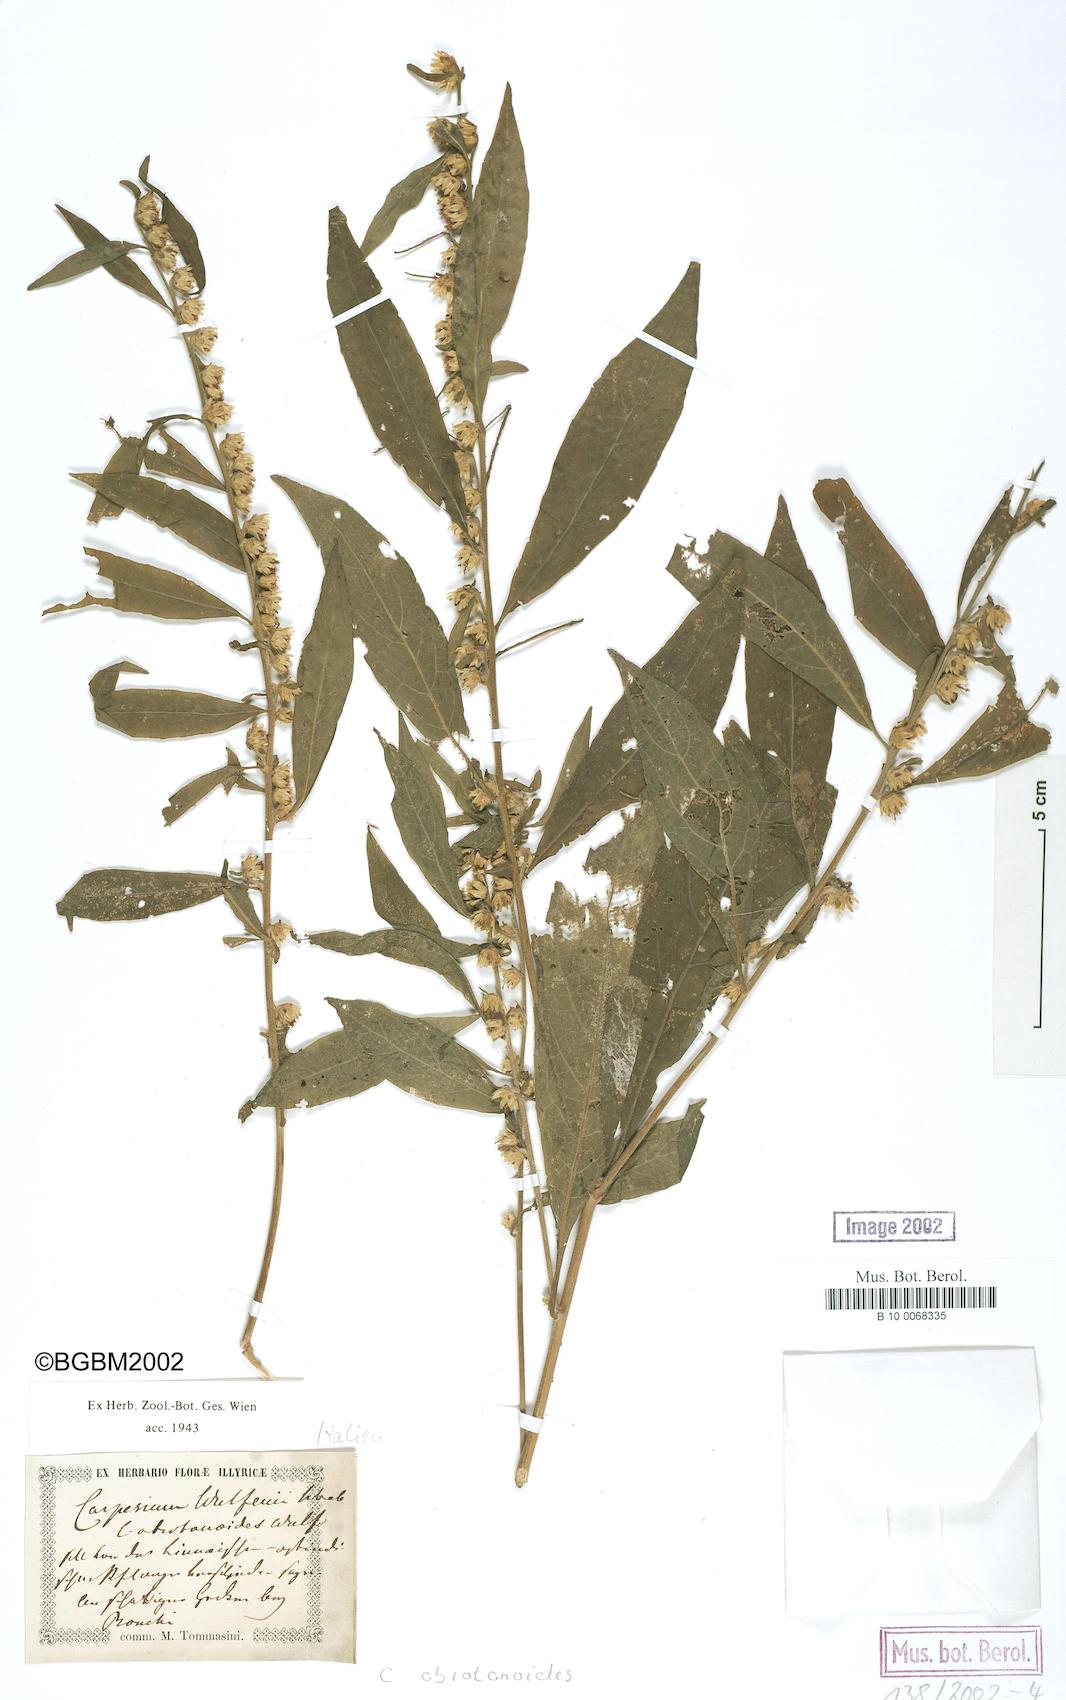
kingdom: Plantae
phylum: Tracheophyta
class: Magnoliopsida
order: Asterales
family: Asteraceae
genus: Carpesium
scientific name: Carpesium abrotanoides
